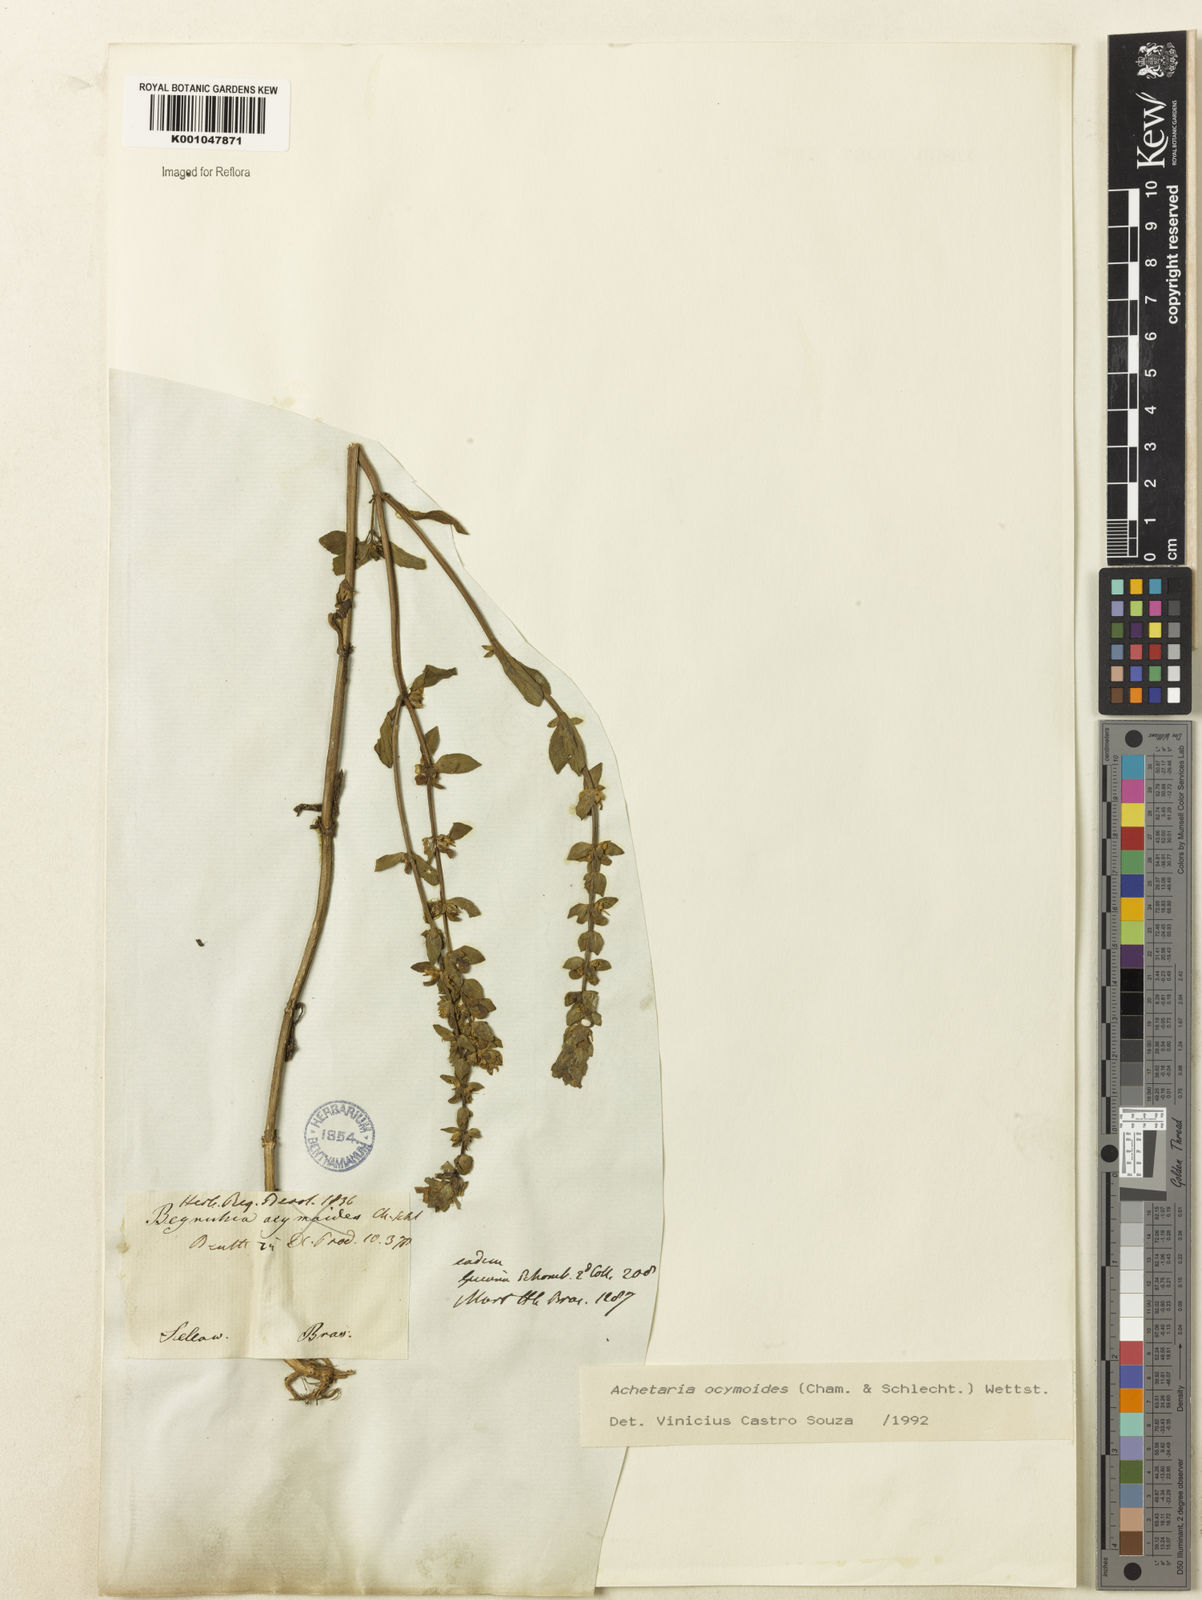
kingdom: Plantae
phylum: Tracheophyta
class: Magnoliopsida
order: Lamiales
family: Plantaginaceae
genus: Matourea
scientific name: Matourea ocymoides
